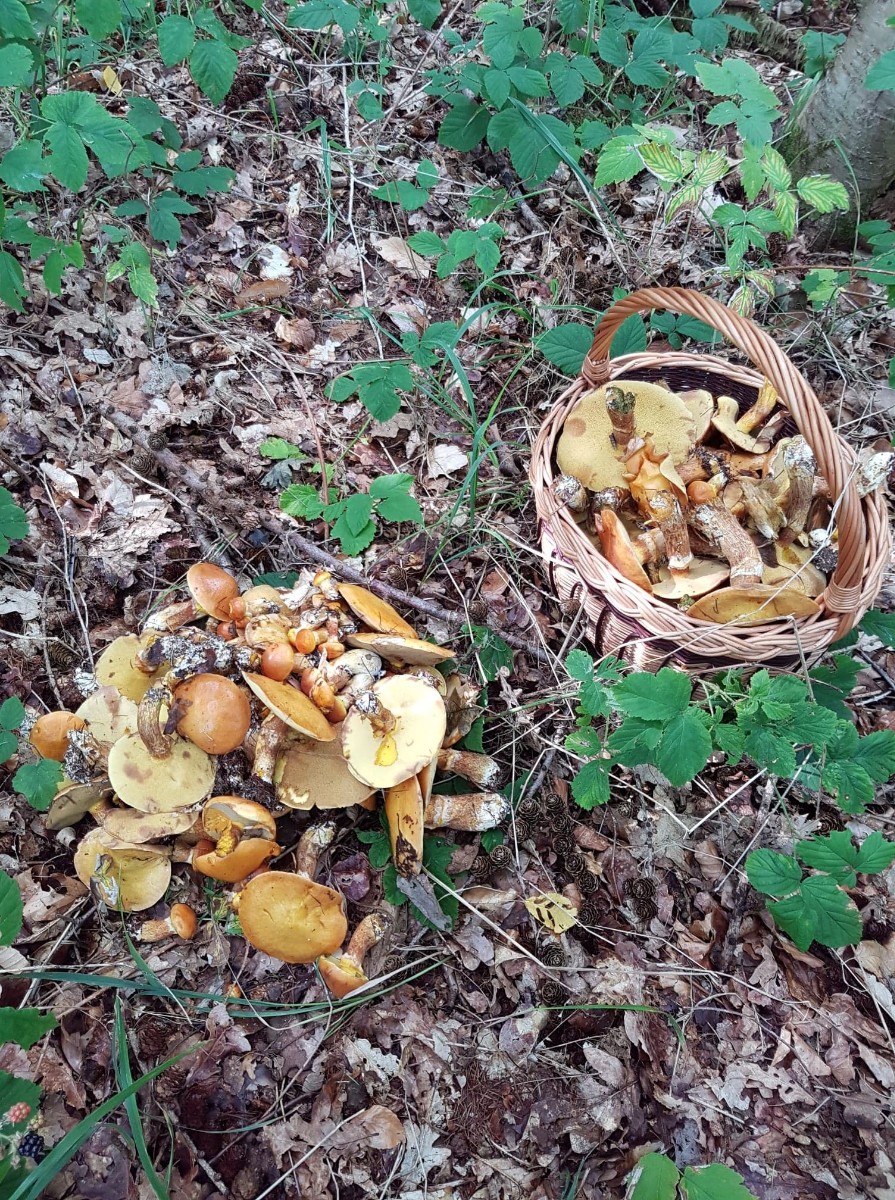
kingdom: Fungi
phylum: Basidiomycota
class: Agaricomycetes
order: Boletales
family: Suillaceae
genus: Suillus
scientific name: Suillus grevillei
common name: lærke-slimrørhat
